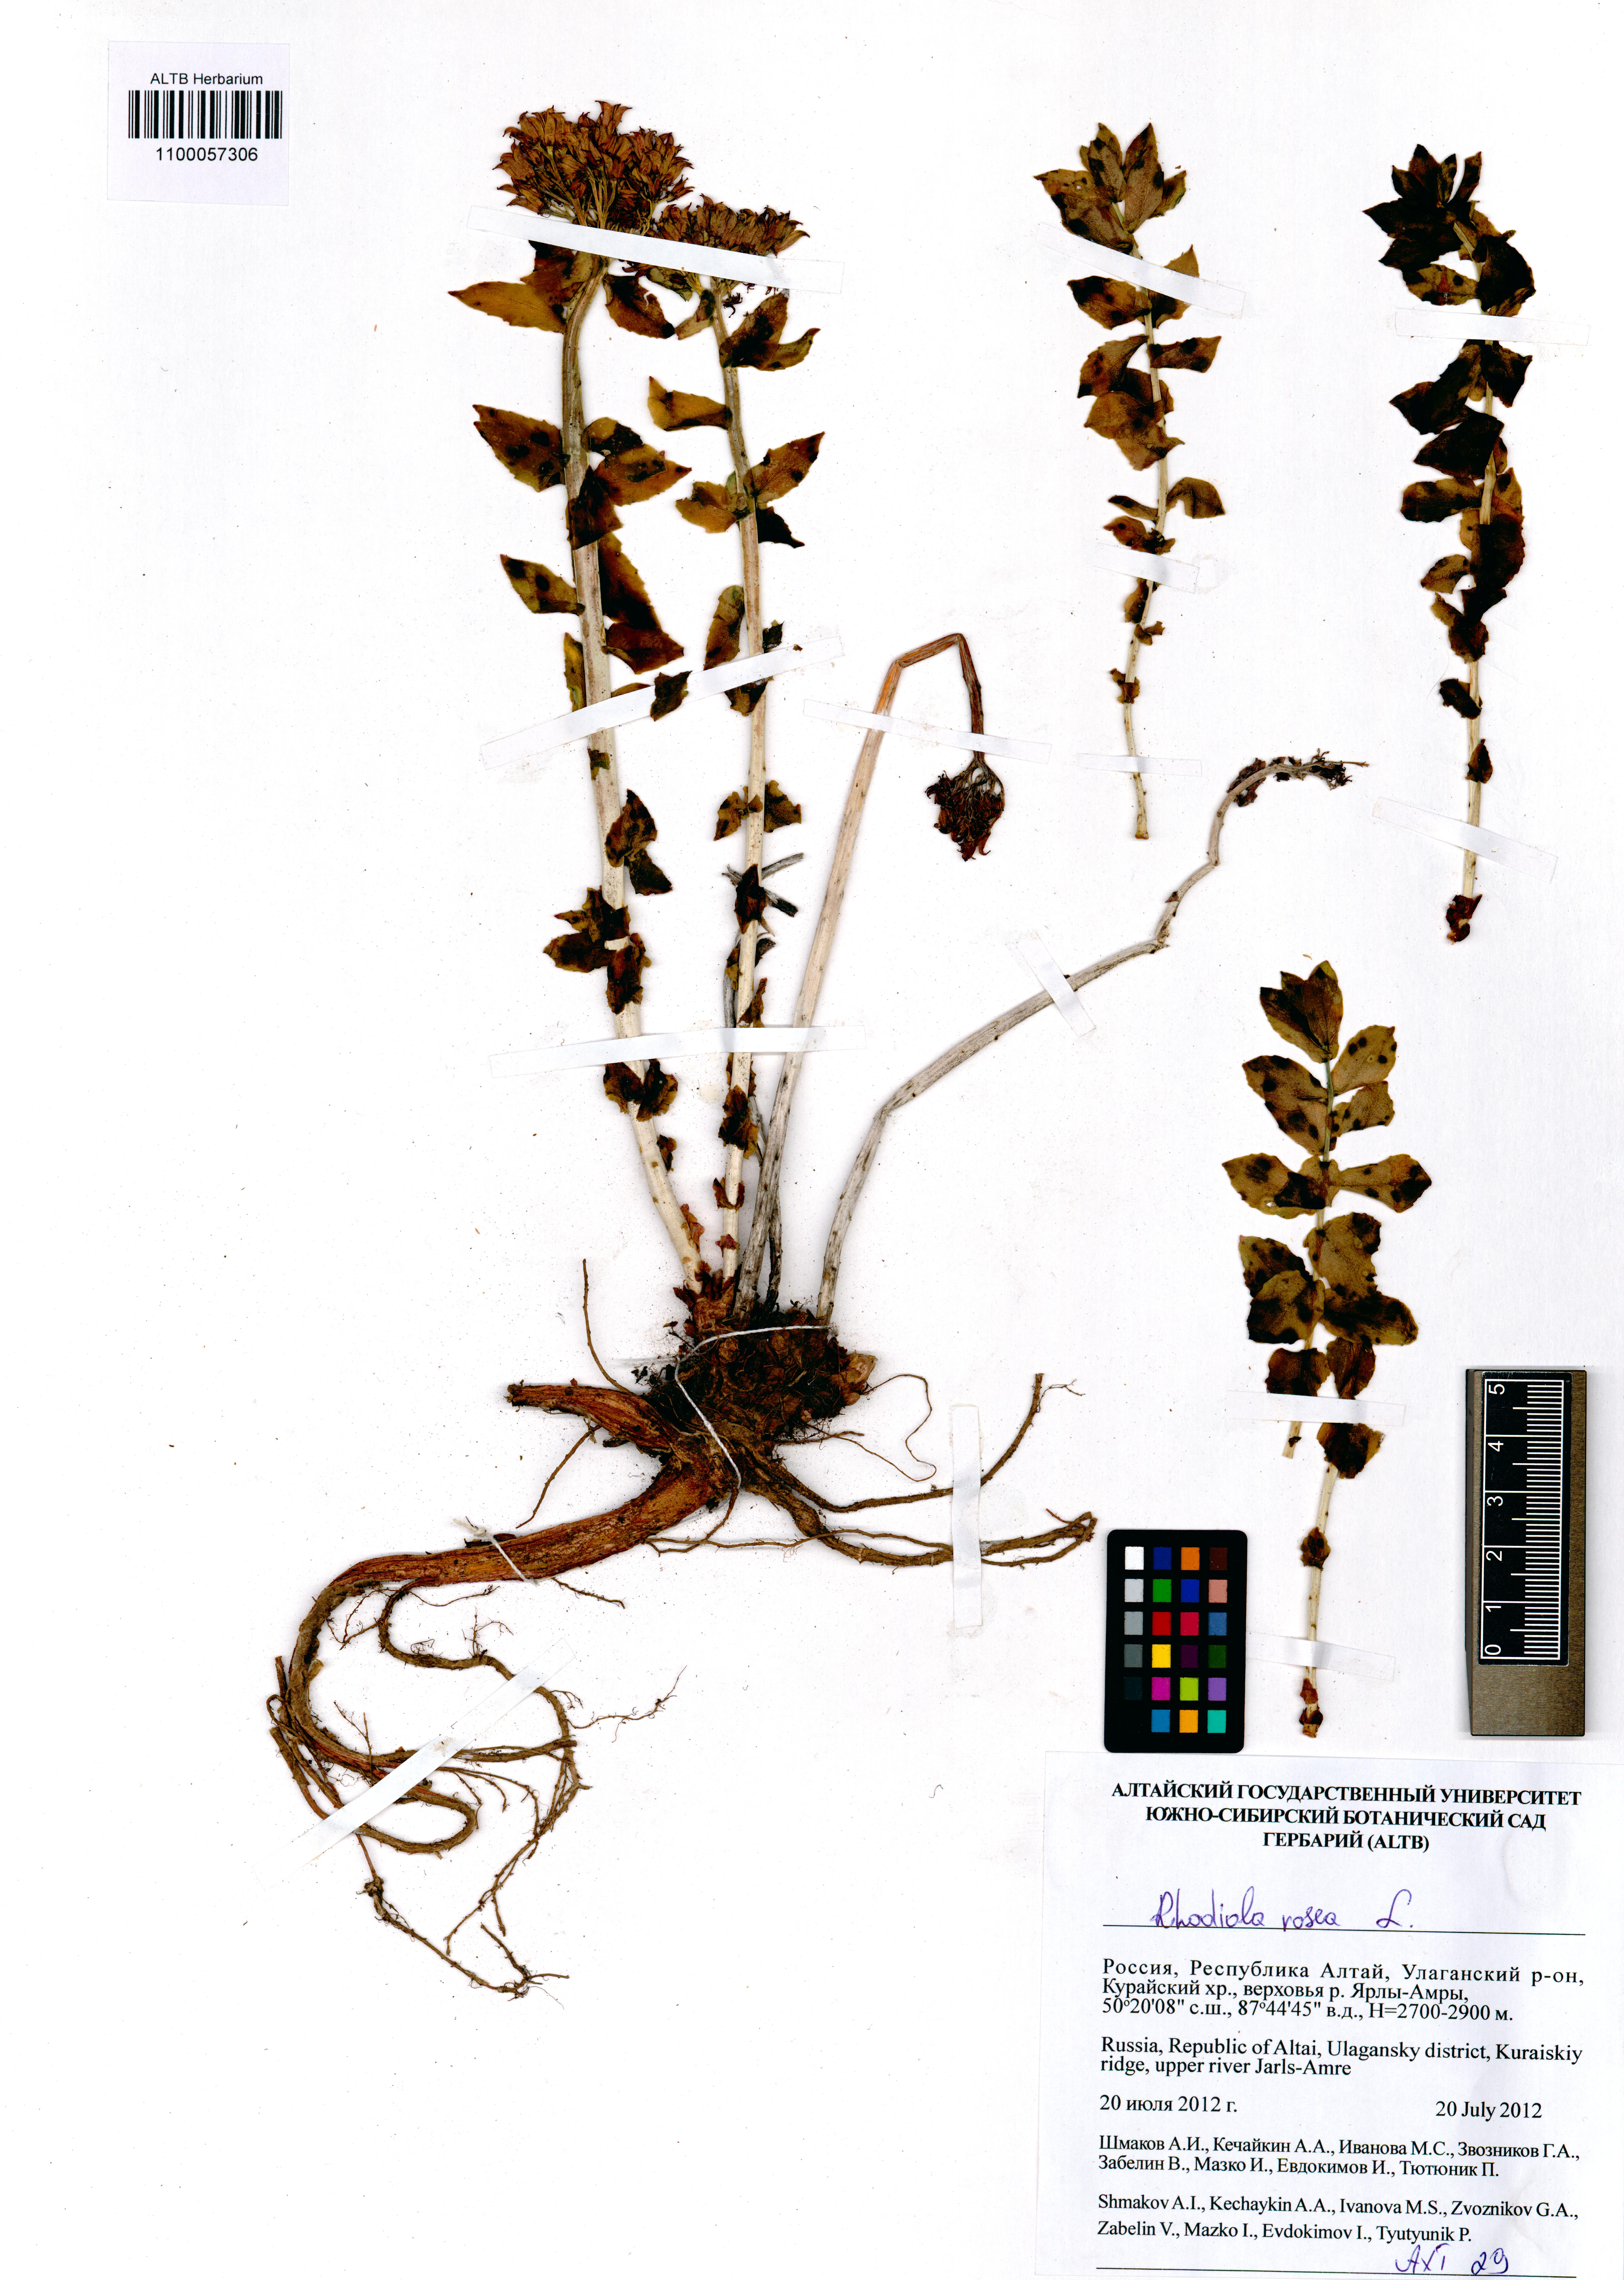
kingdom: Plantae
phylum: Tracheophyta
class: Magnoliopsida
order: Saxifragales
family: Crassulaceae
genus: Rhodiola
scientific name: Rhodiola rosea
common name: Roseroot
